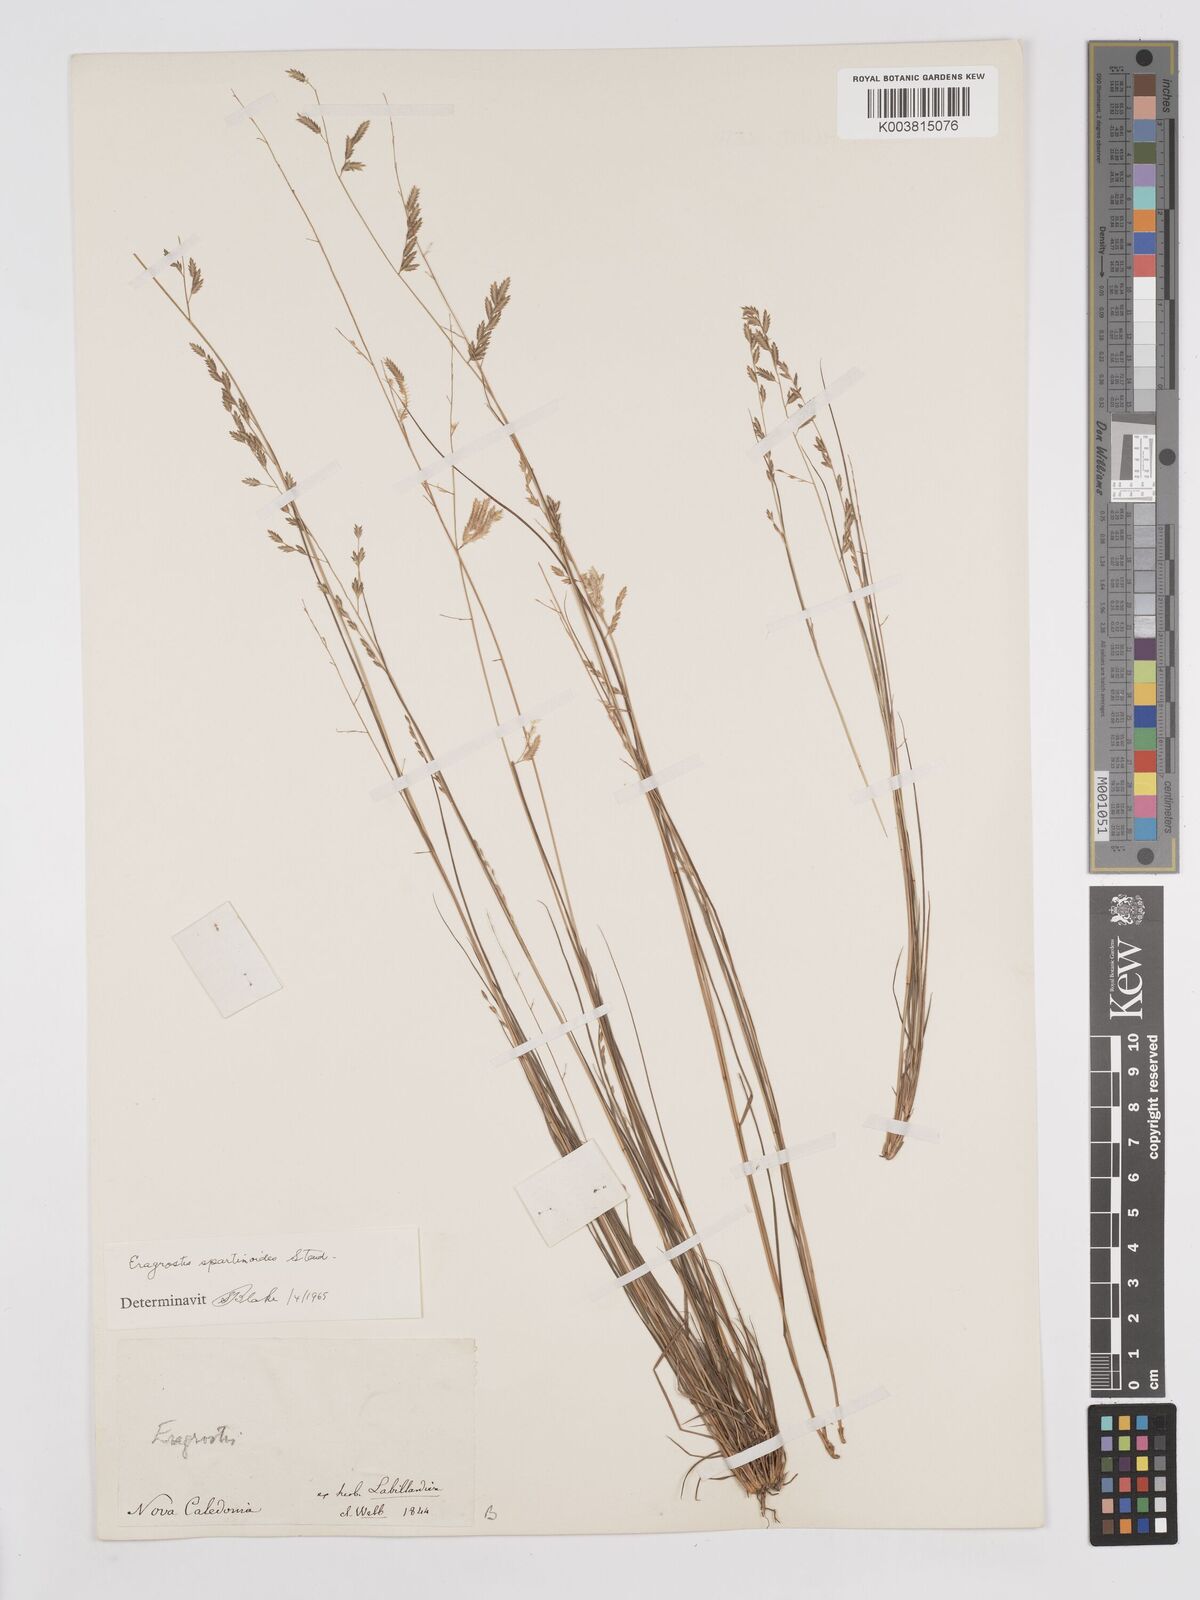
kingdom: Plantae
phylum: Tracheophyta
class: Liliopsida
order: Poales
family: Poaceae
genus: Eragrostis
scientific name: Eragrostis brownii
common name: Lovegrass
